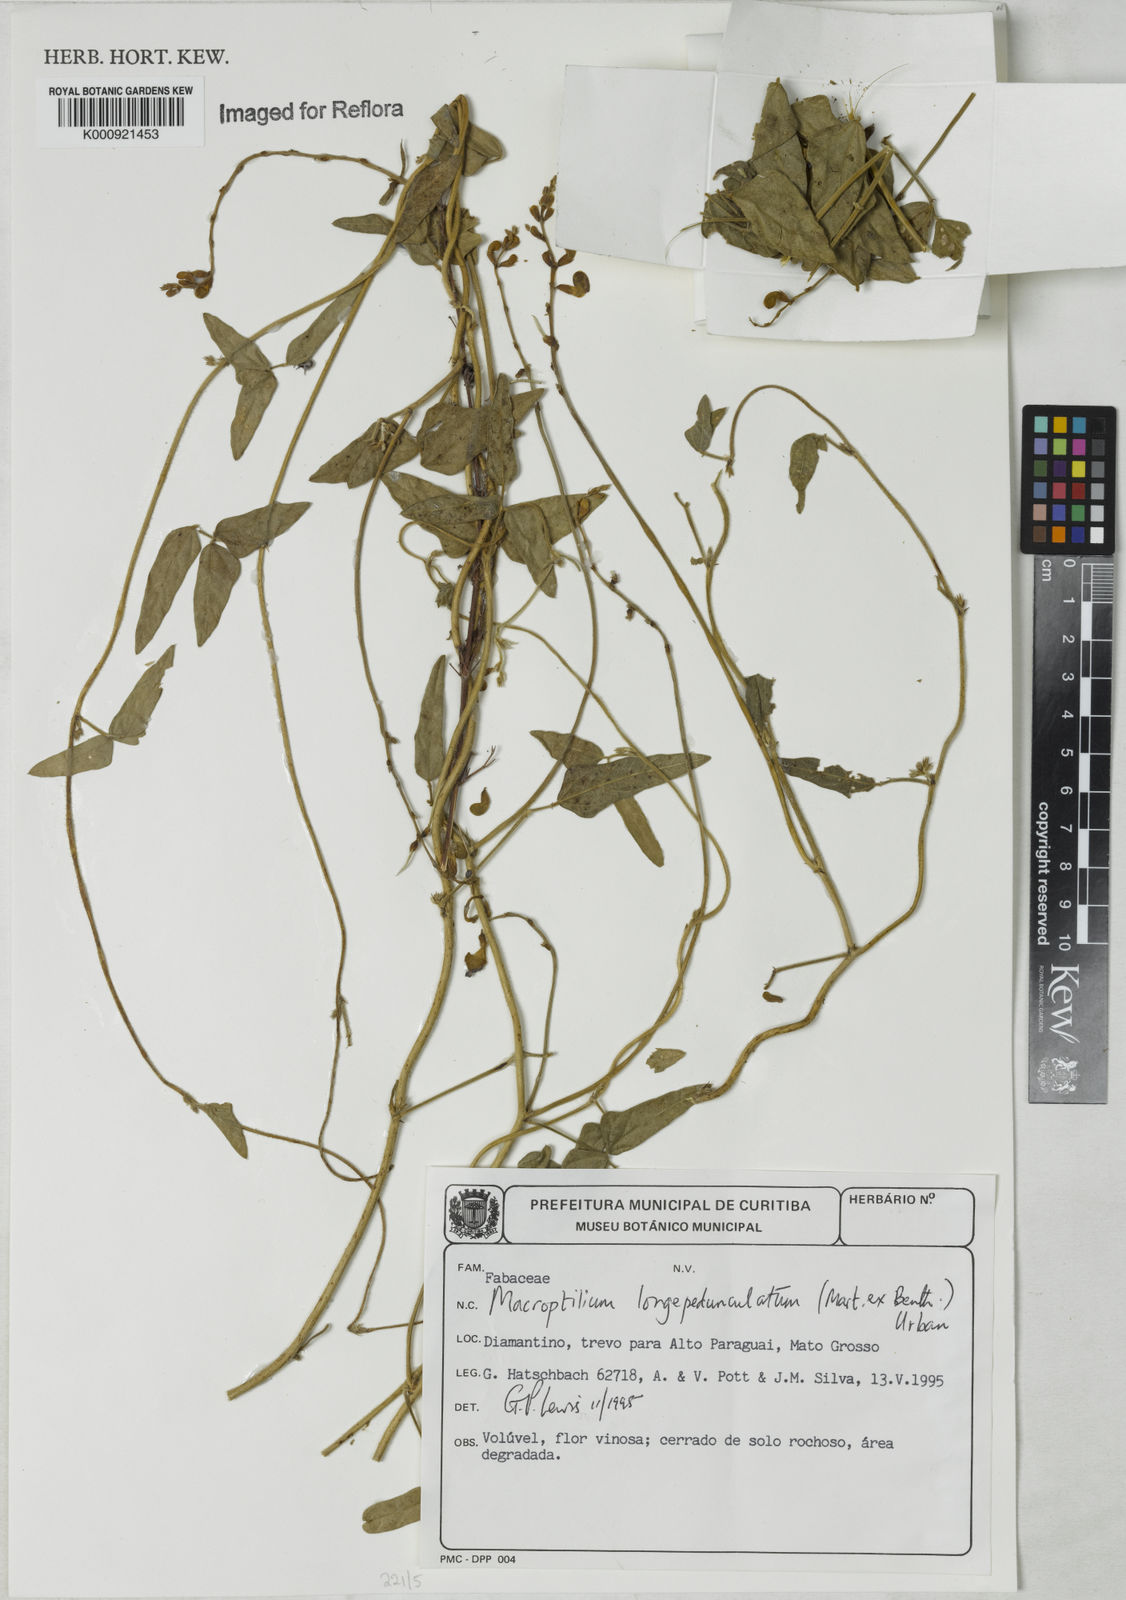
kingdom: Plantae
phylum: Tracheophyta
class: Magnoliopsida
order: Fabales
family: Fabaceae
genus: Macroptilium
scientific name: Macroptilium
